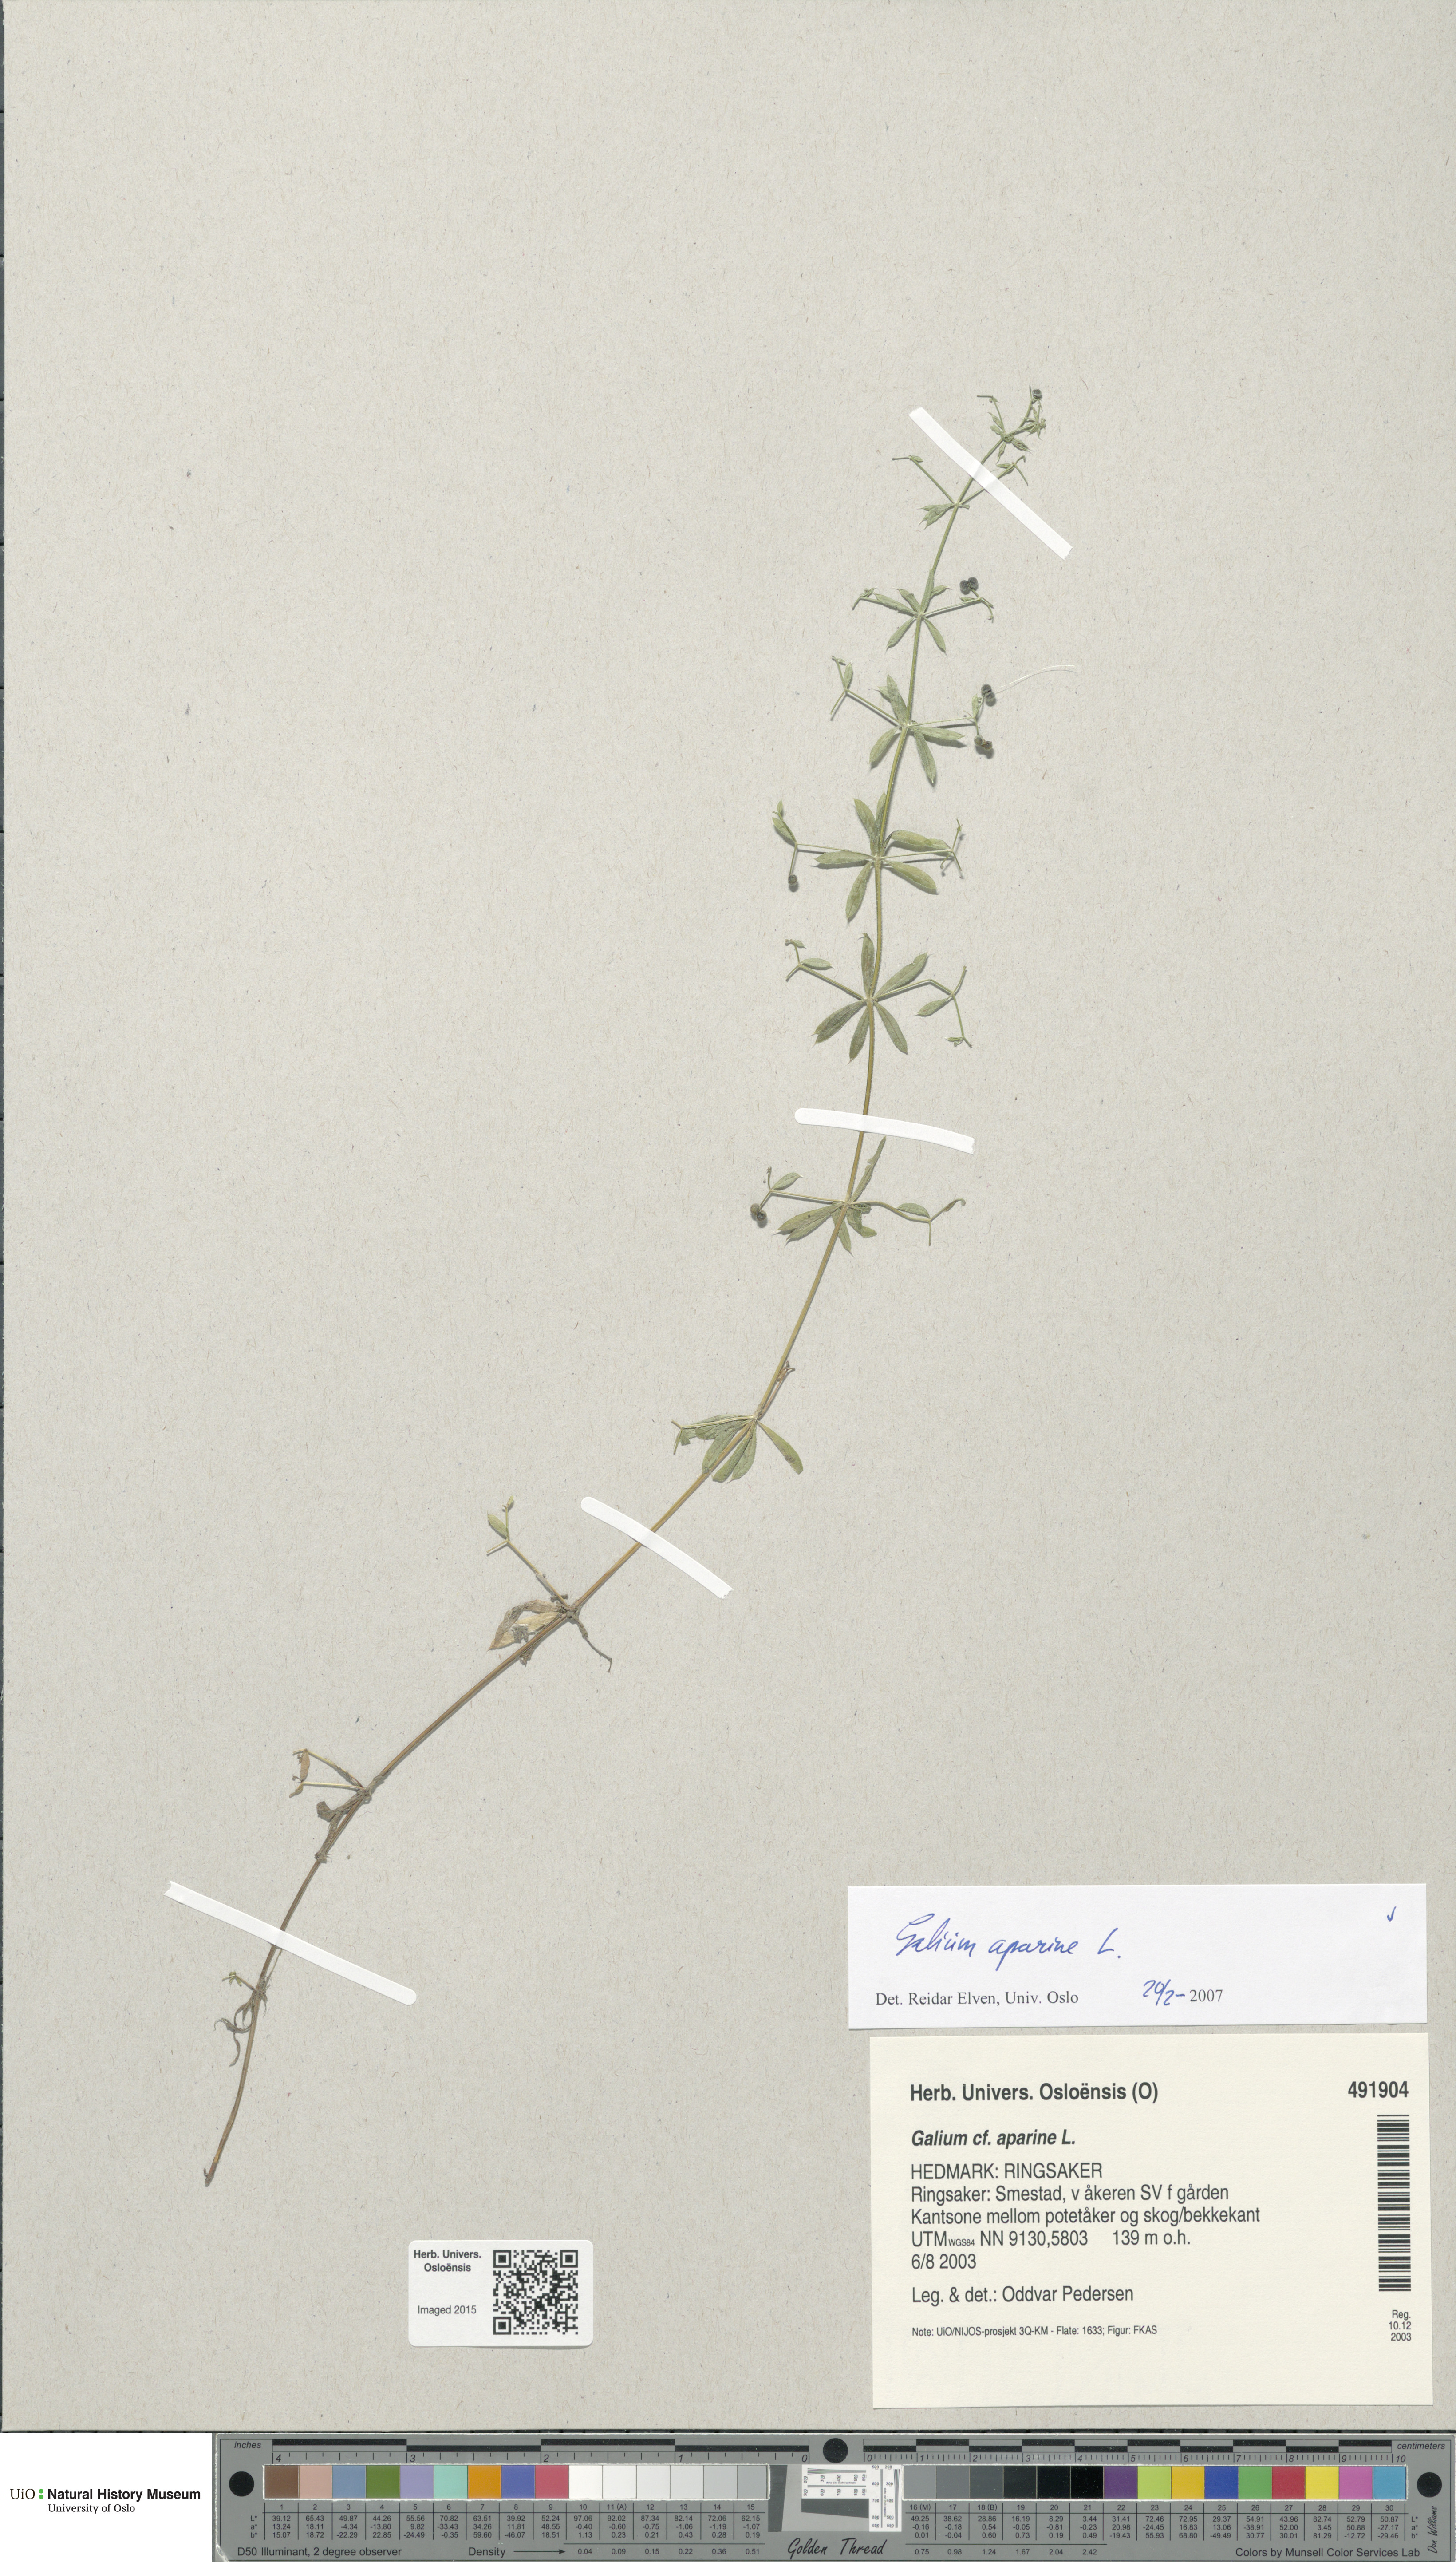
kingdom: Plantae
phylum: Tracheophyta
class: Magnoliopsida
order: Gentianales
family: Rubiaceae
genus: Galium
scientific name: Galium aparine
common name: Cleavers
